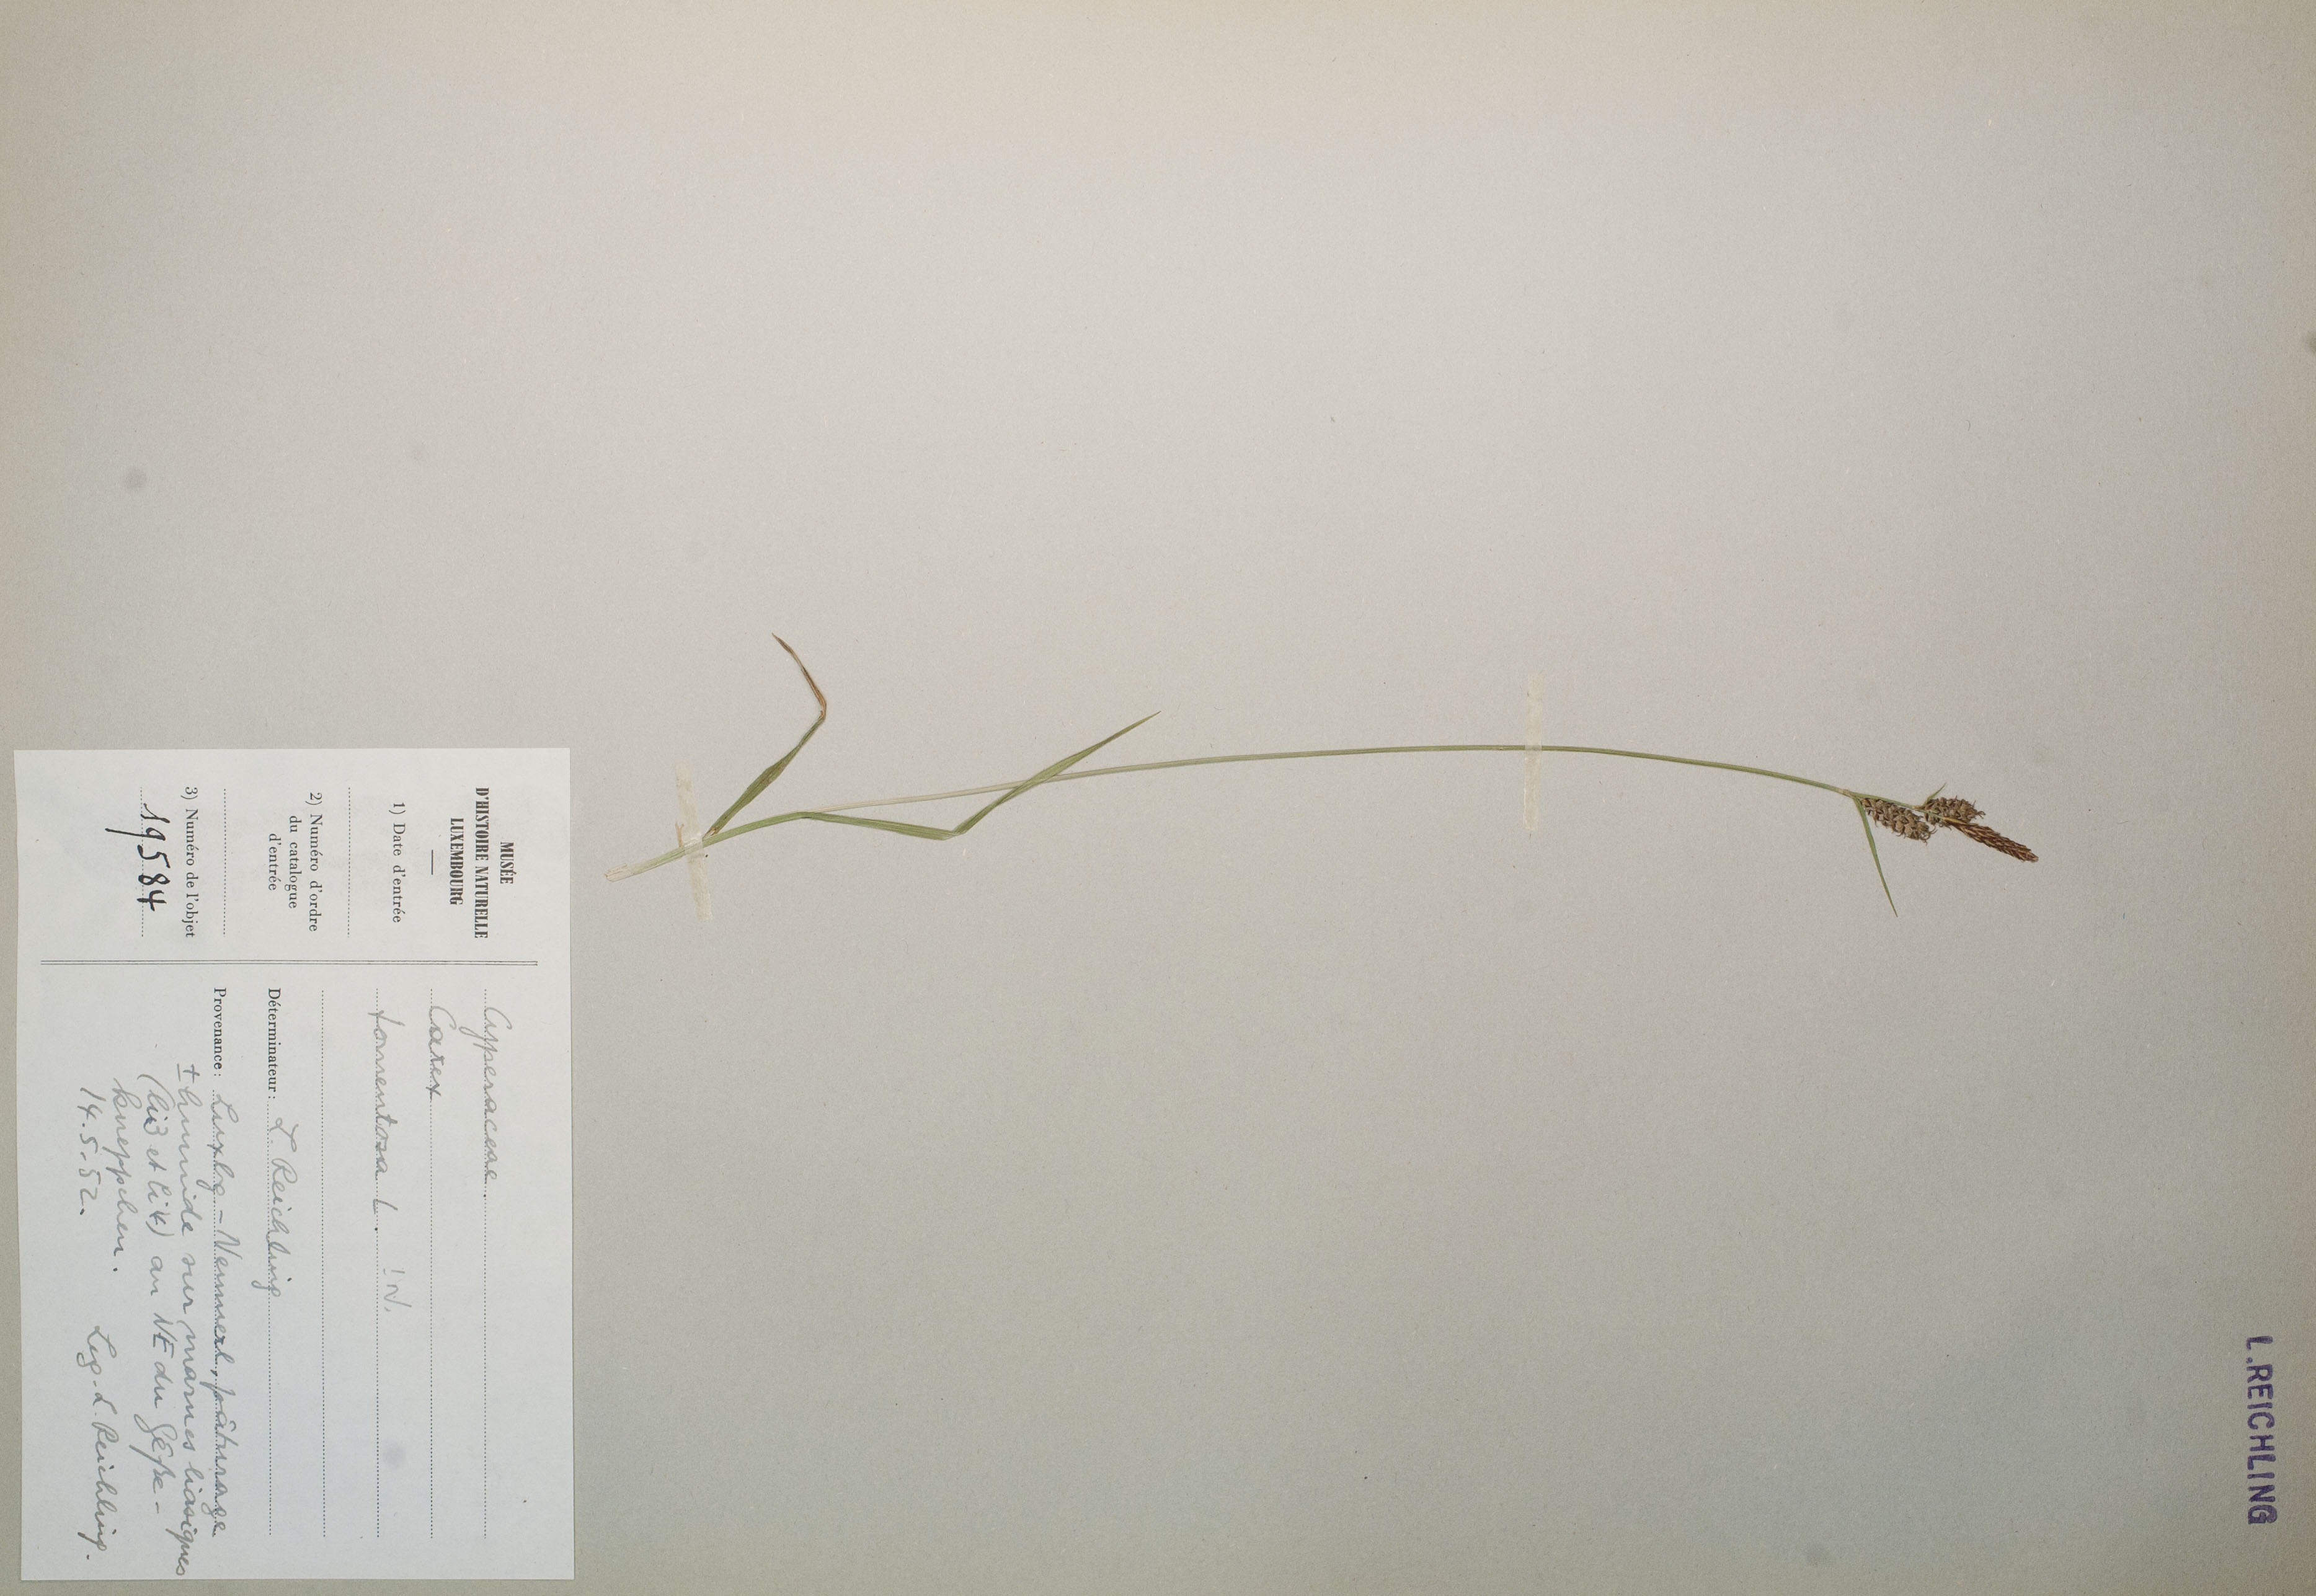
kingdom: Plantae
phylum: Tracheophyta
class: Liliopsida
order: Poales
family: Cyperaceae
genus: Carex
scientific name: Carex tomentosa
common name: Downy-fruited sedge
